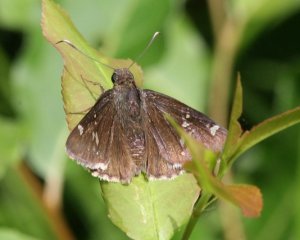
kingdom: Animalia
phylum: Arthropoda
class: Insecta
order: Lepidoptera
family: Hesperiidae
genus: Autochton
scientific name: Autochton
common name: Southern Cloudywing
